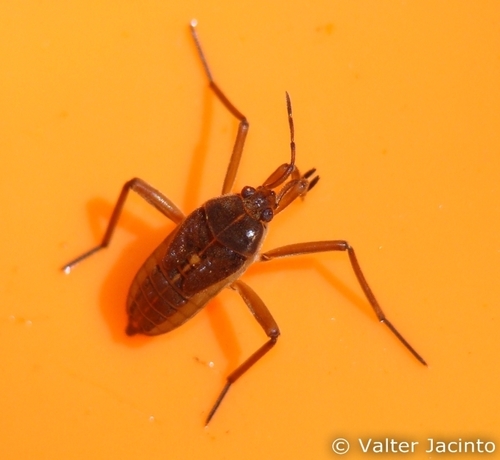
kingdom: Animalia
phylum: Arthropoda
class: Insecta
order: Hemiptera
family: Veliidae
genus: Velia
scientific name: Velia
